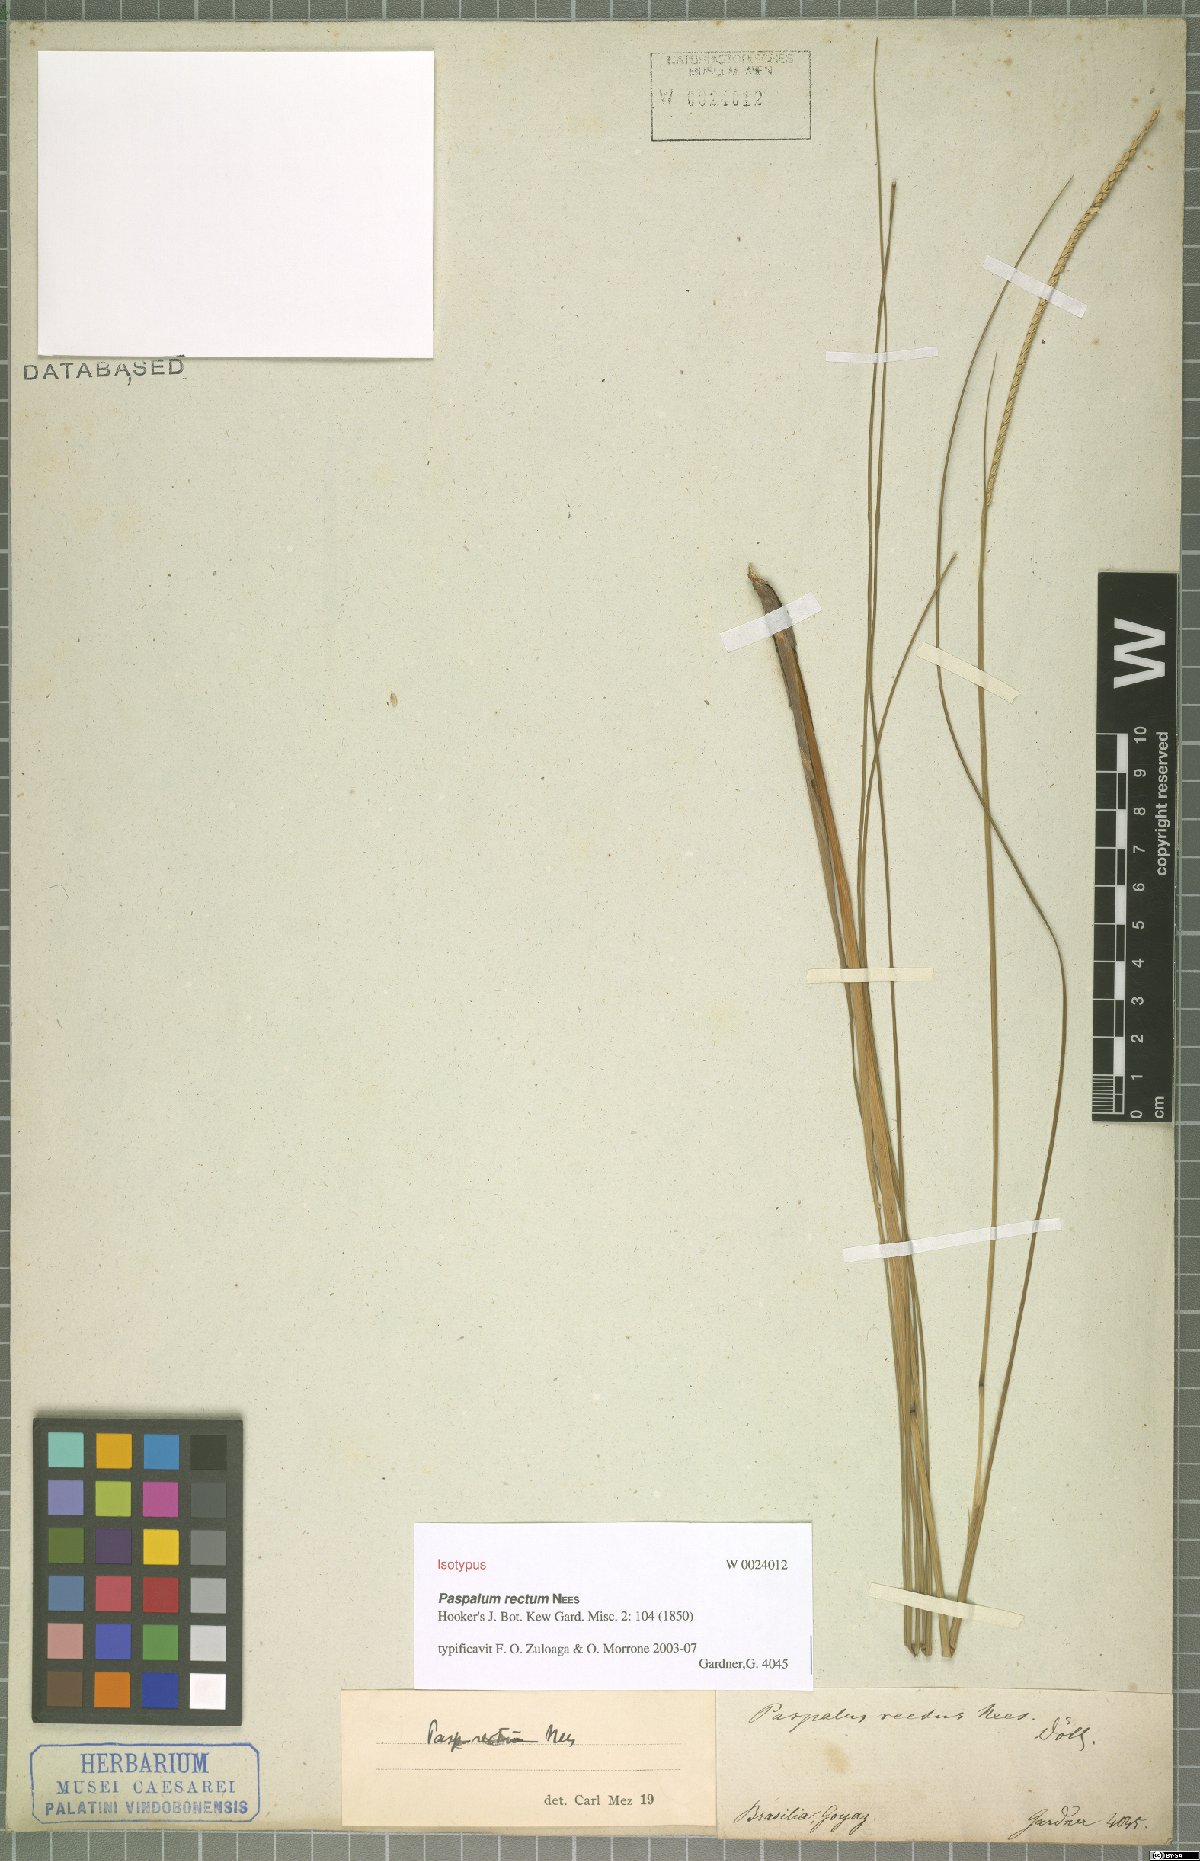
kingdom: Plantae
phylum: Tracheophyta
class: Liliopsida
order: Poales
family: Poaceae
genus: Paspalum
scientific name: Paspalum rectum
